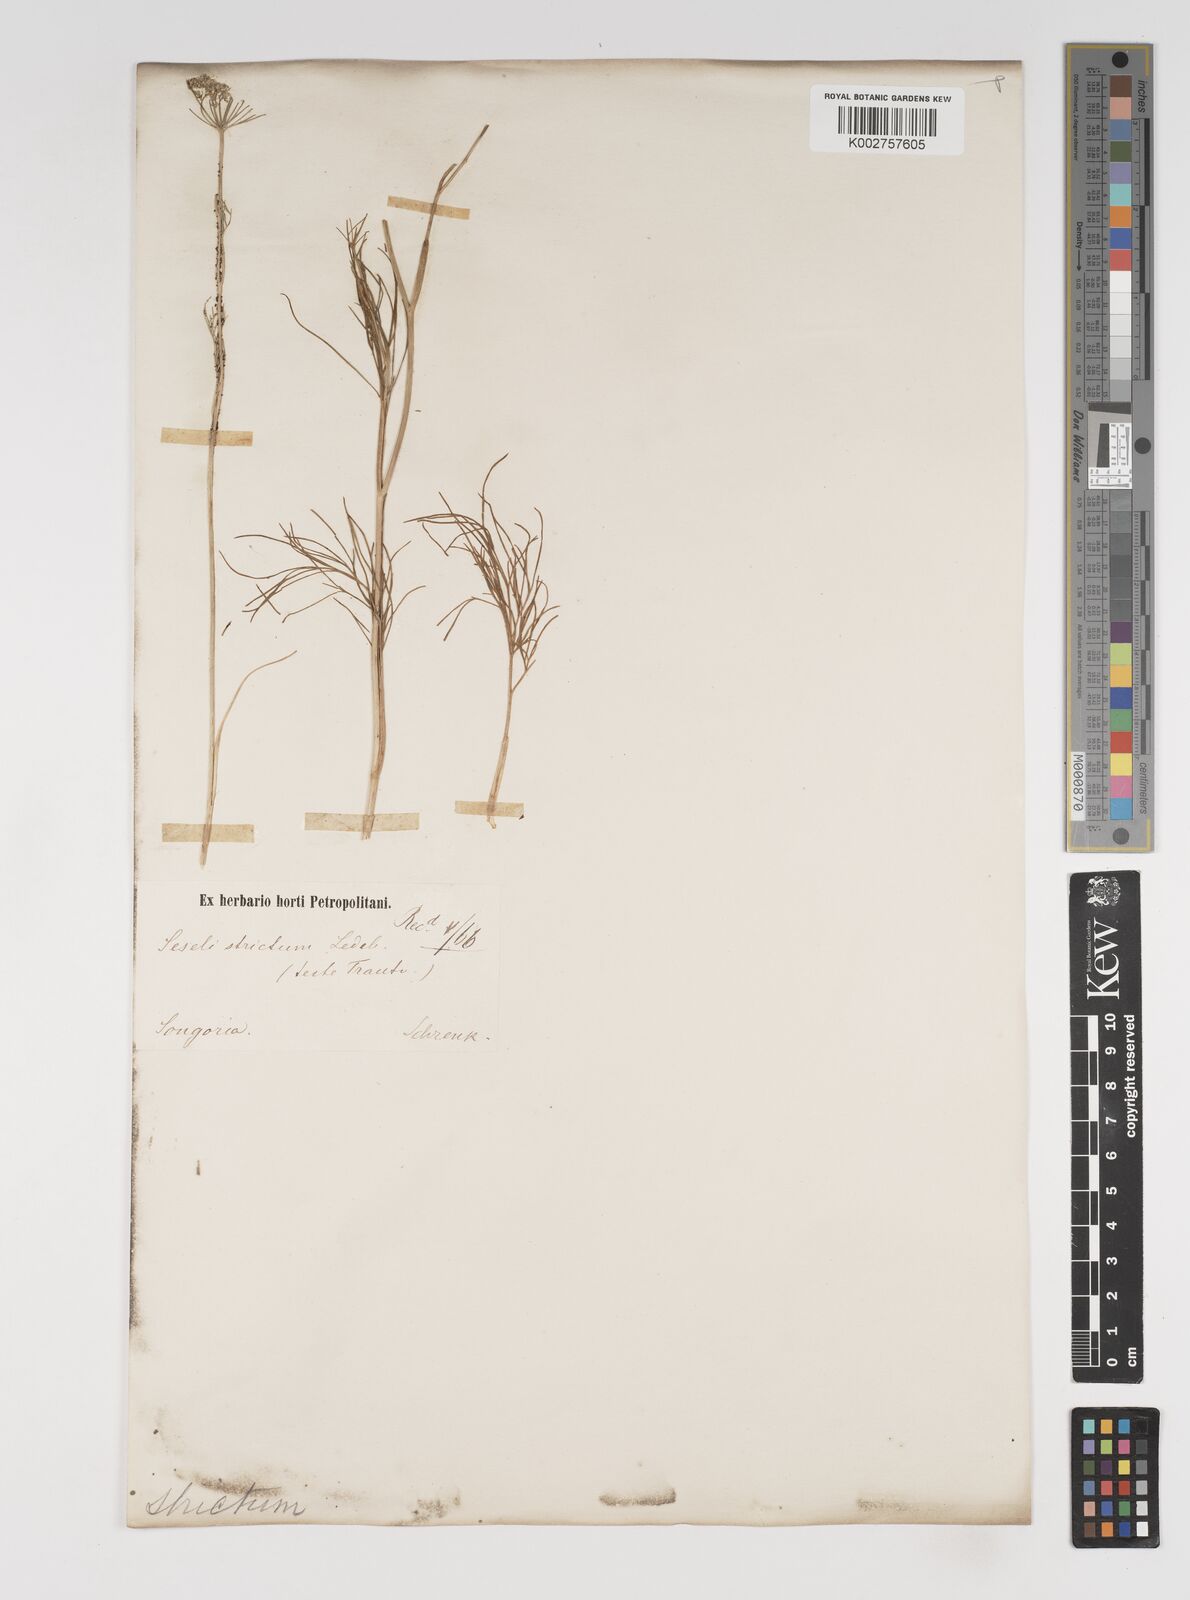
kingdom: Plantae
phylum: Tracheophyta
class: Magnoliopsida
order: Apiales
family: Apiaceae
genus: Seseli
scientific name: Seseli strictum
